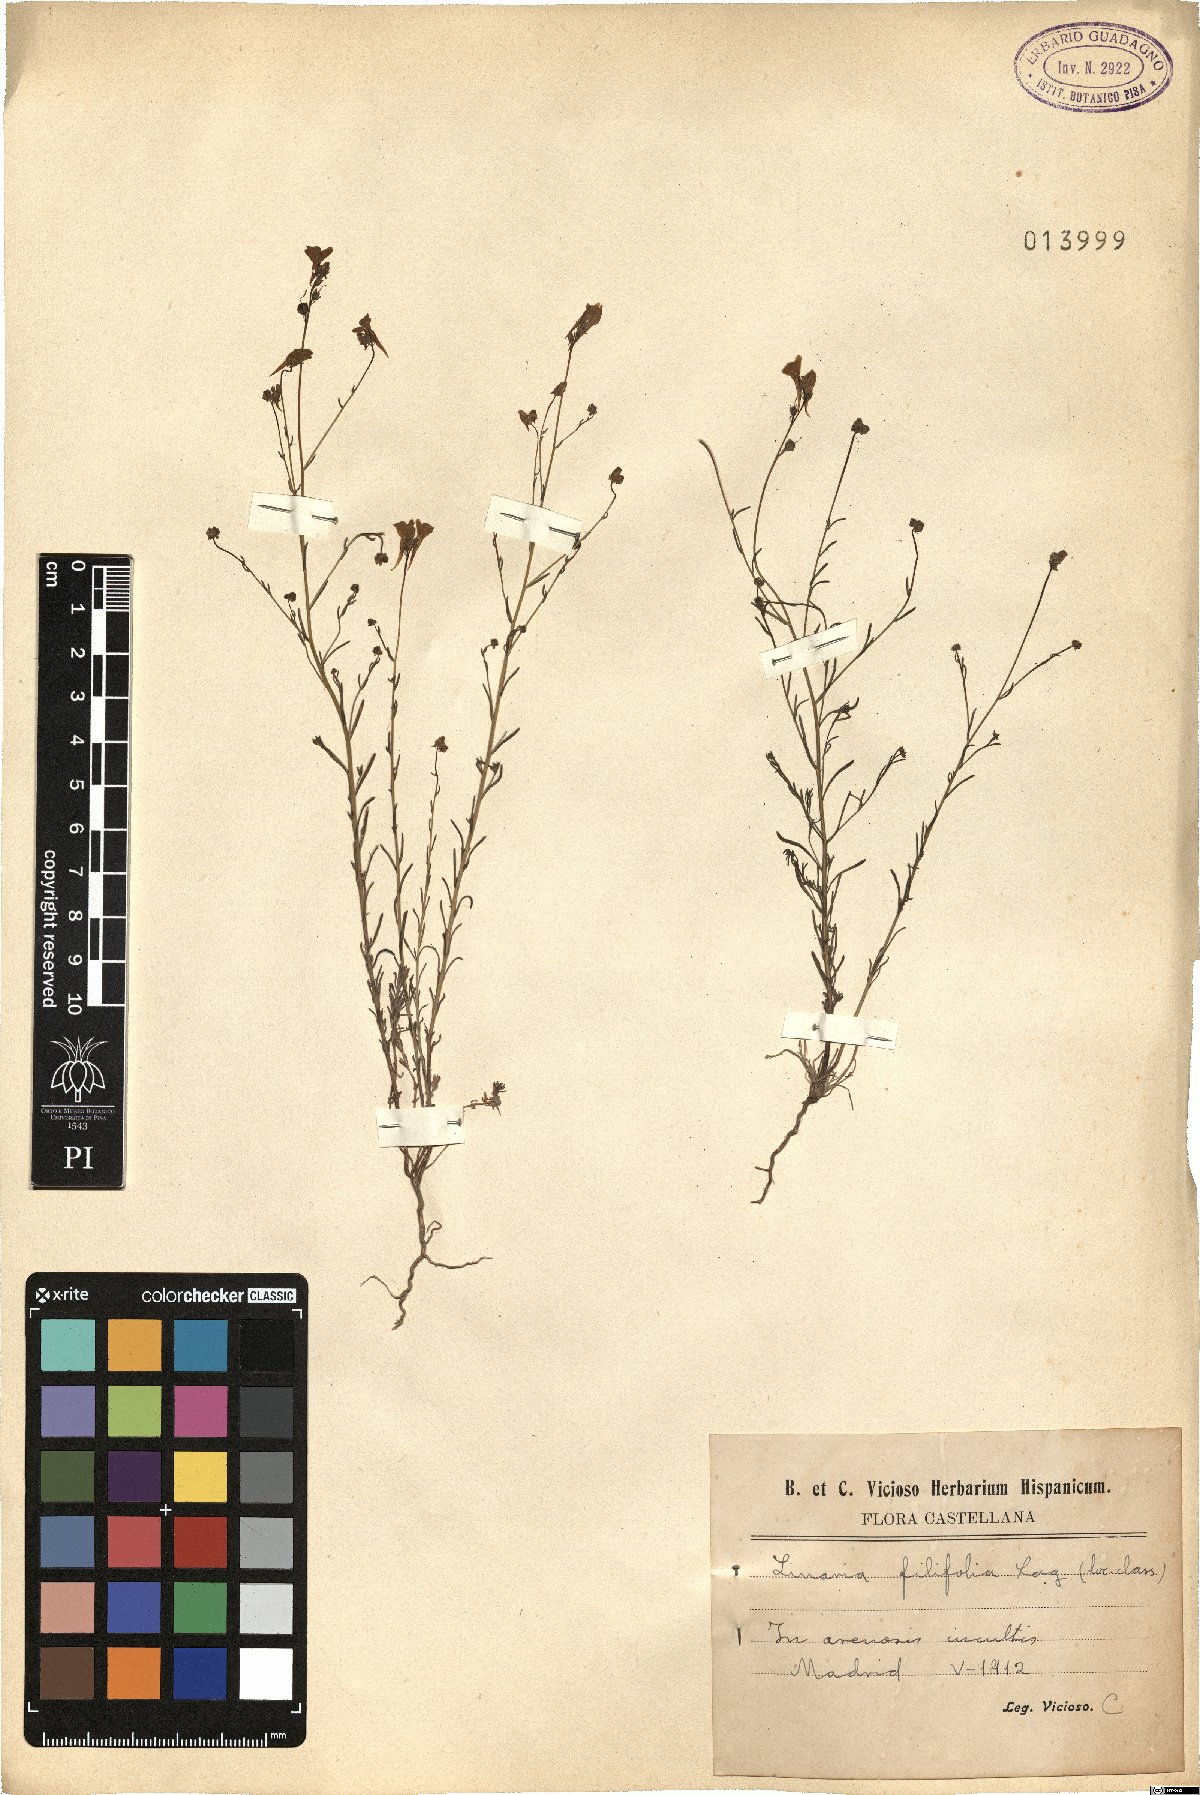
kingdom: Plantae
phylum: Tracheophyta
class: Magnoliopsida
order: Lamiales
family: Plantaginaceae
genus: Linaria
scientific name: Linaria bipunctata
